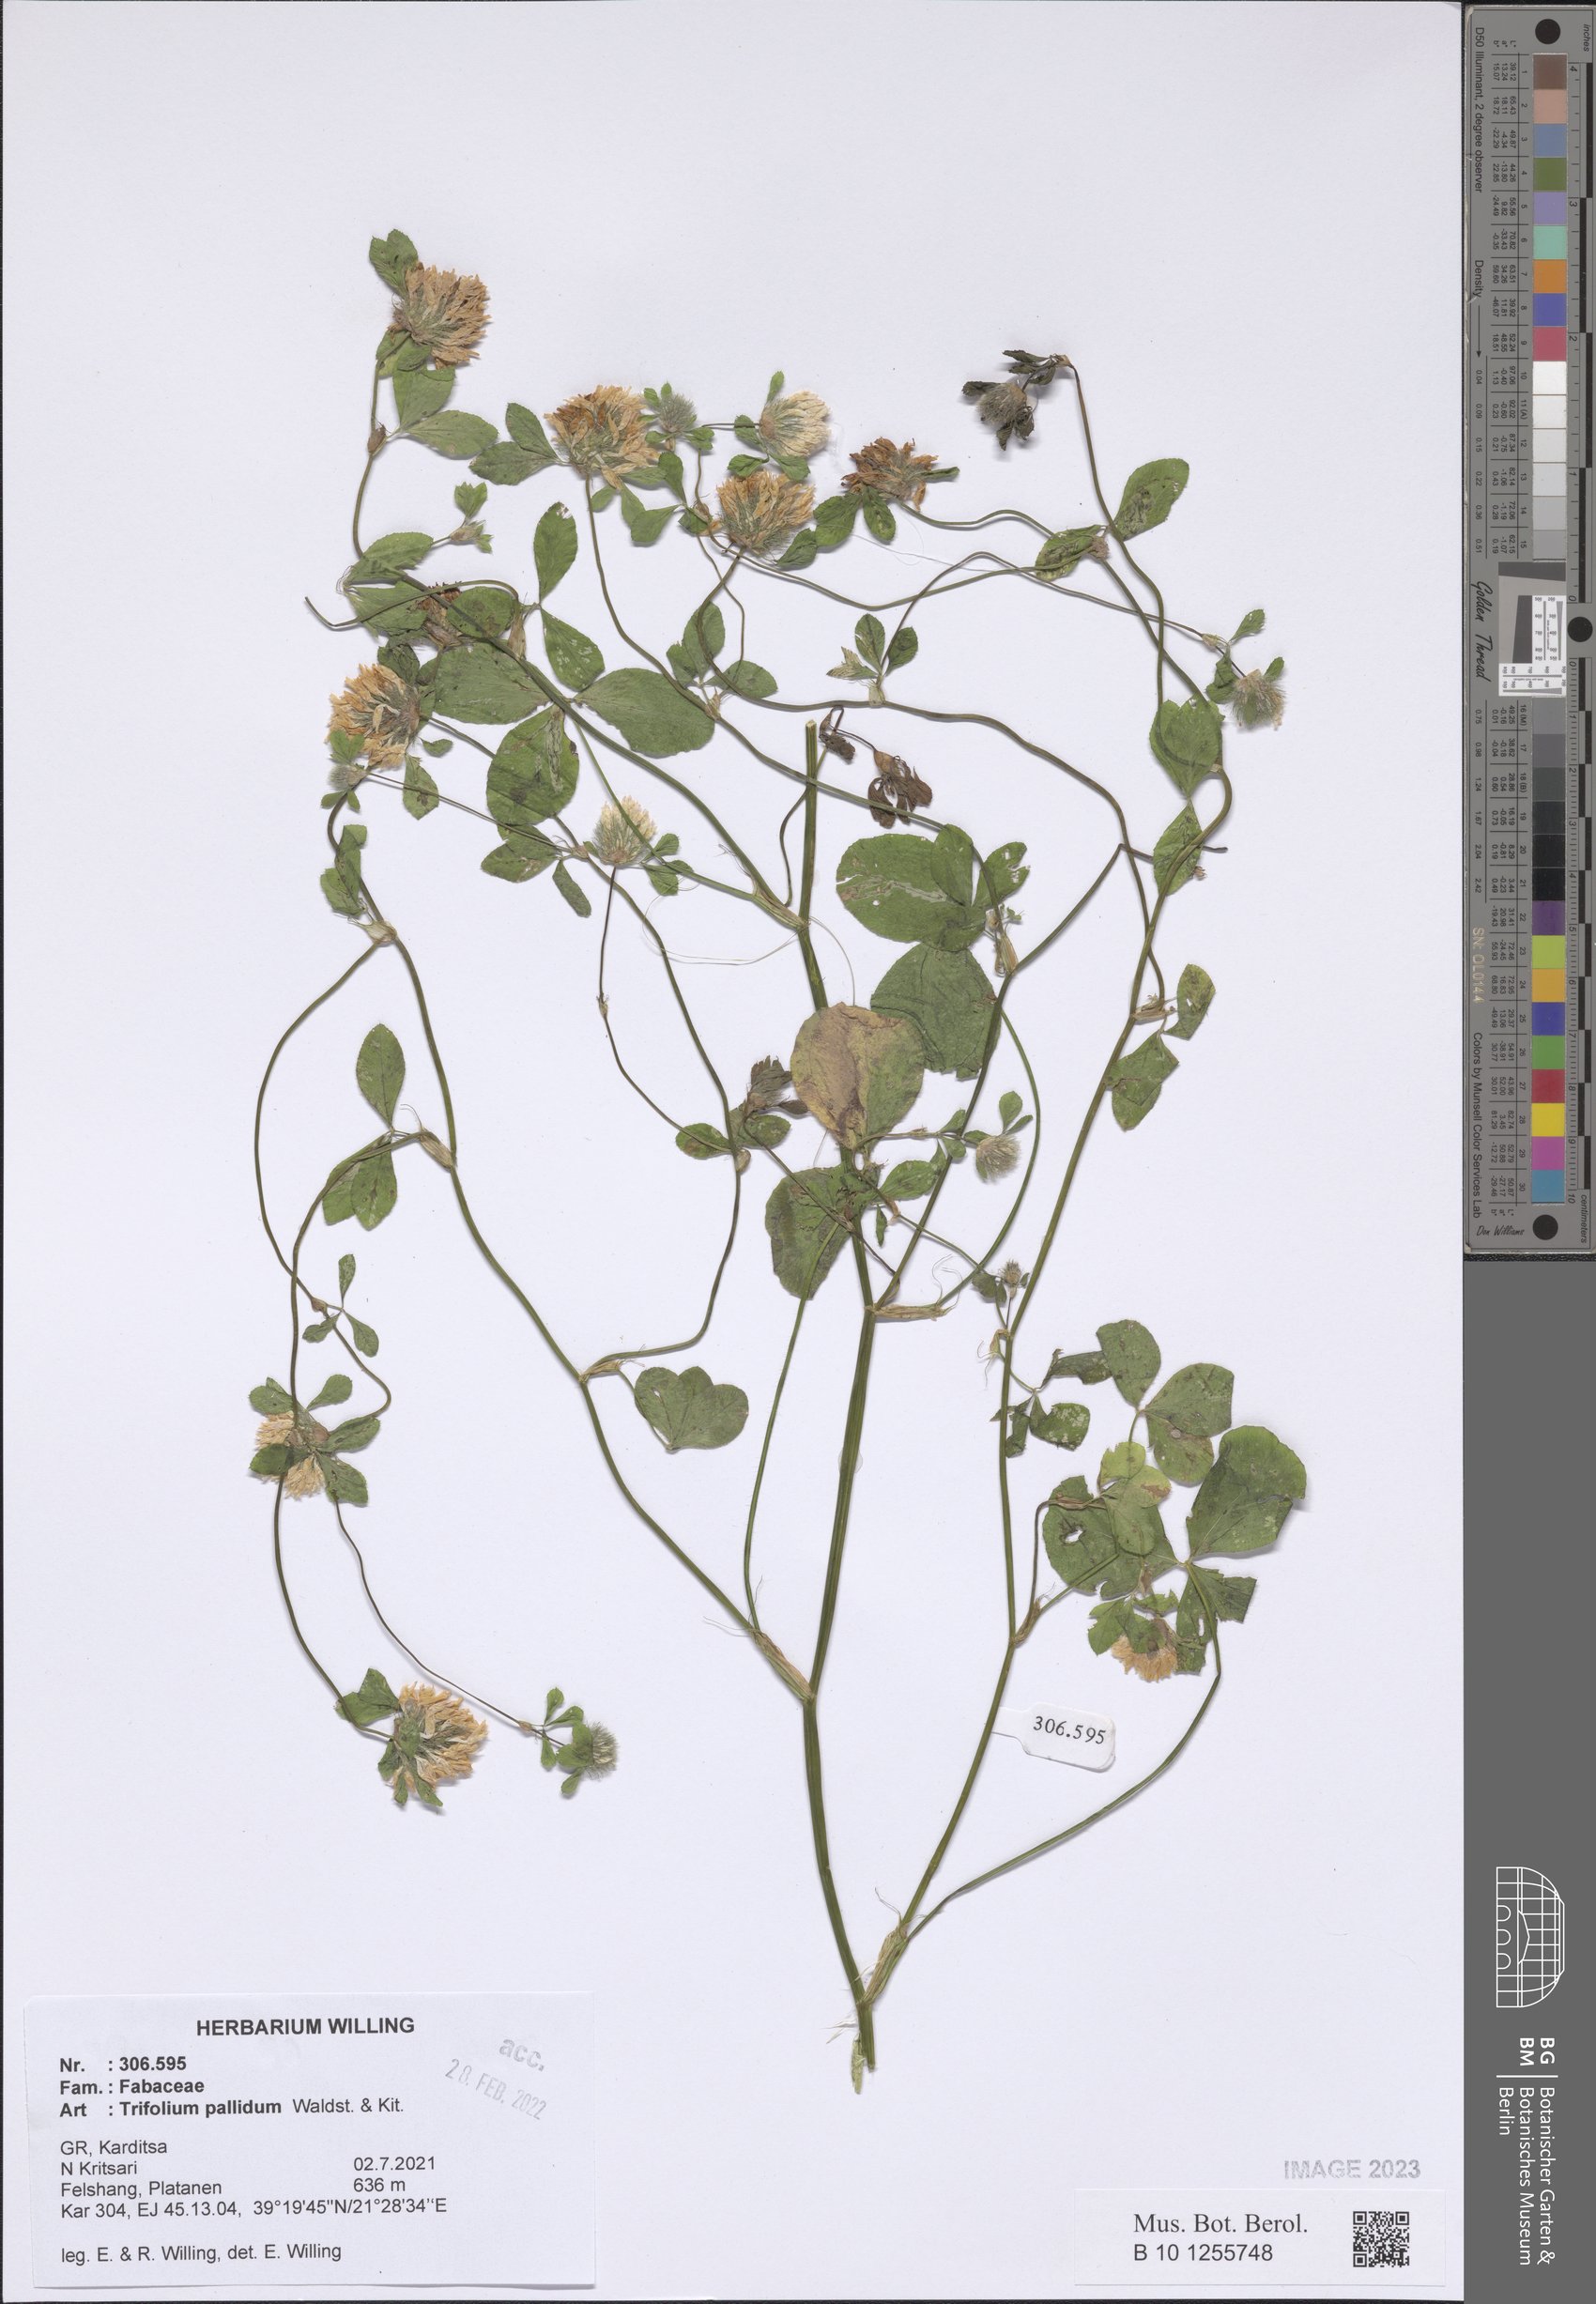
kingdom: Plantae
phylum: Tracheophyta
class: Magnoliopsida
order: Fabales
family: Fabaceae
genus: Trifolium
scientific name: Trifolium pallidum
